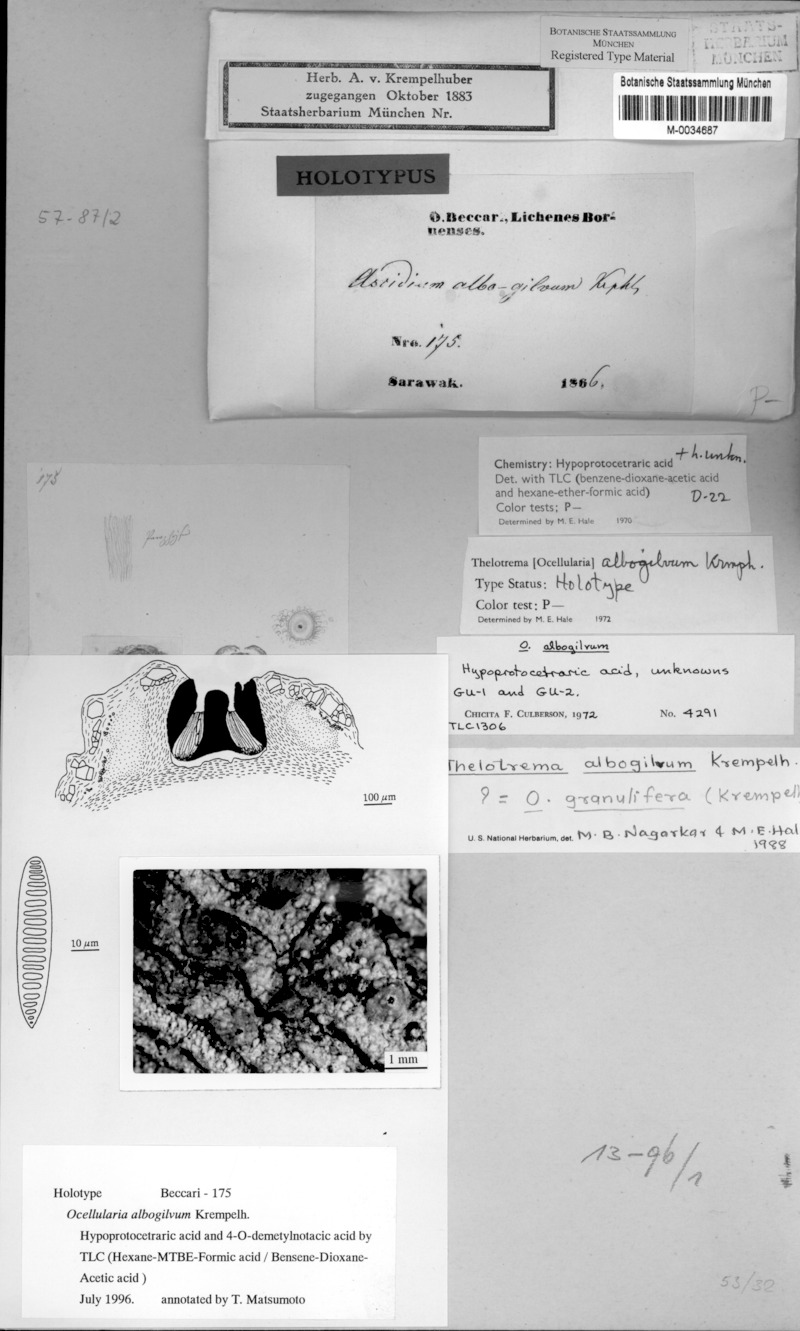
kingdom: Fungi
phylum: Ascomycota
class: Lecanoromycetes
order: Ostropales
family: Graphidaceae
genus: Ocellularia
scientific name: Ocellularia albogilva
